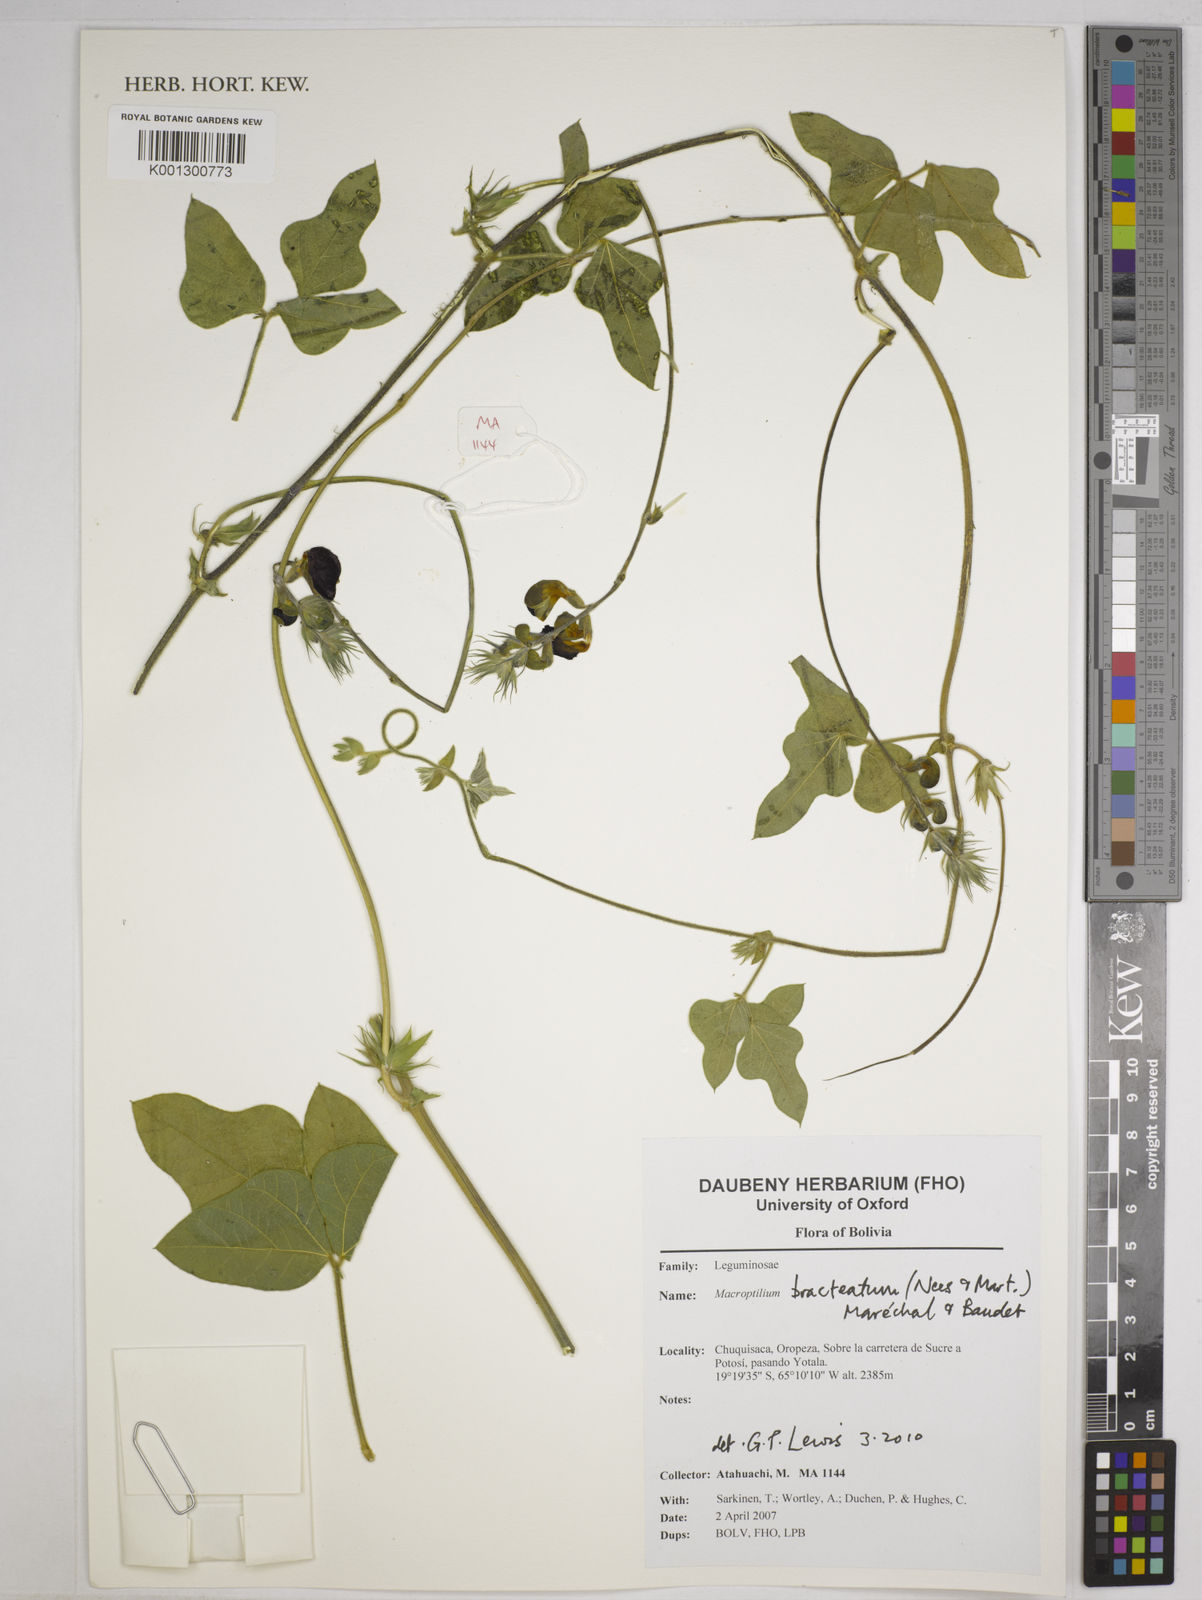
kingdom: Plantae
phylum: Tracheophyta
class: Magnoliopsida
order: Fabales
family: Fabaceae
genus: Macroptilium
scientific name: Macroptilium bracteatum
